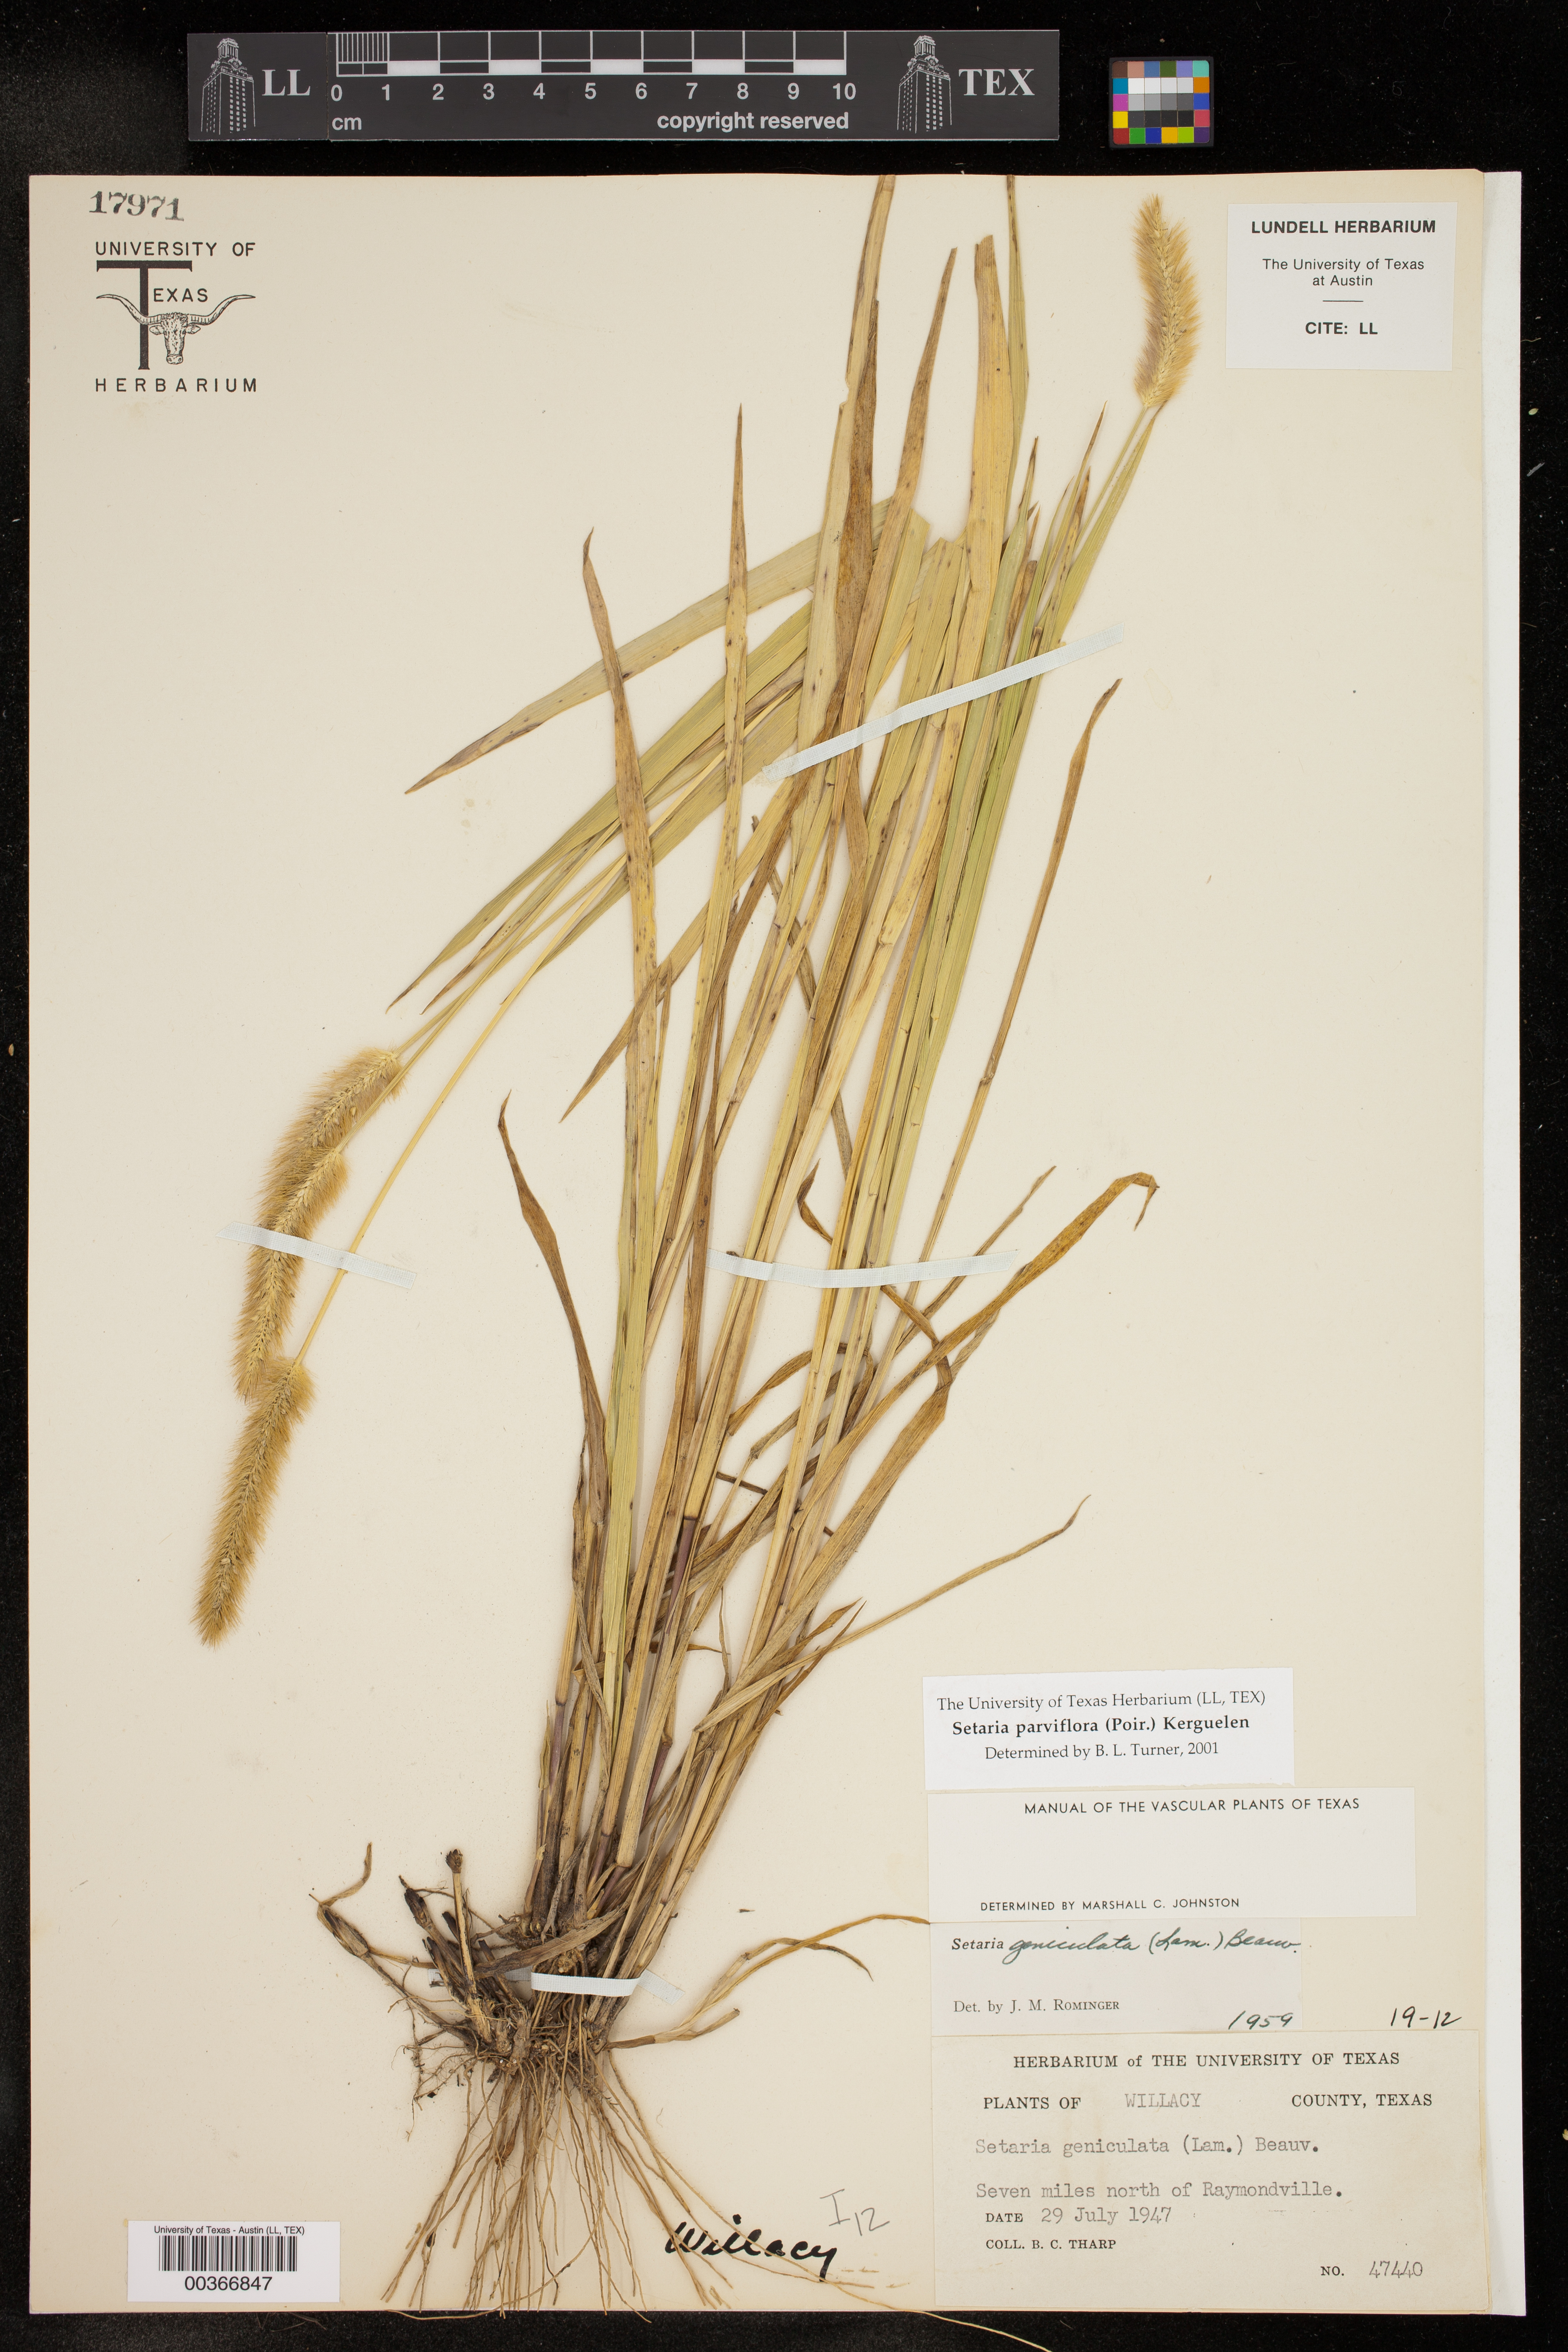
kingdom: Plantae
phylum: Tracheophyta
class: Liliopsida
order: Poales
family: Poaceae
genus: Setaria
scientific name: Setaria parviflora
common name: Knotroot bristle-grass
